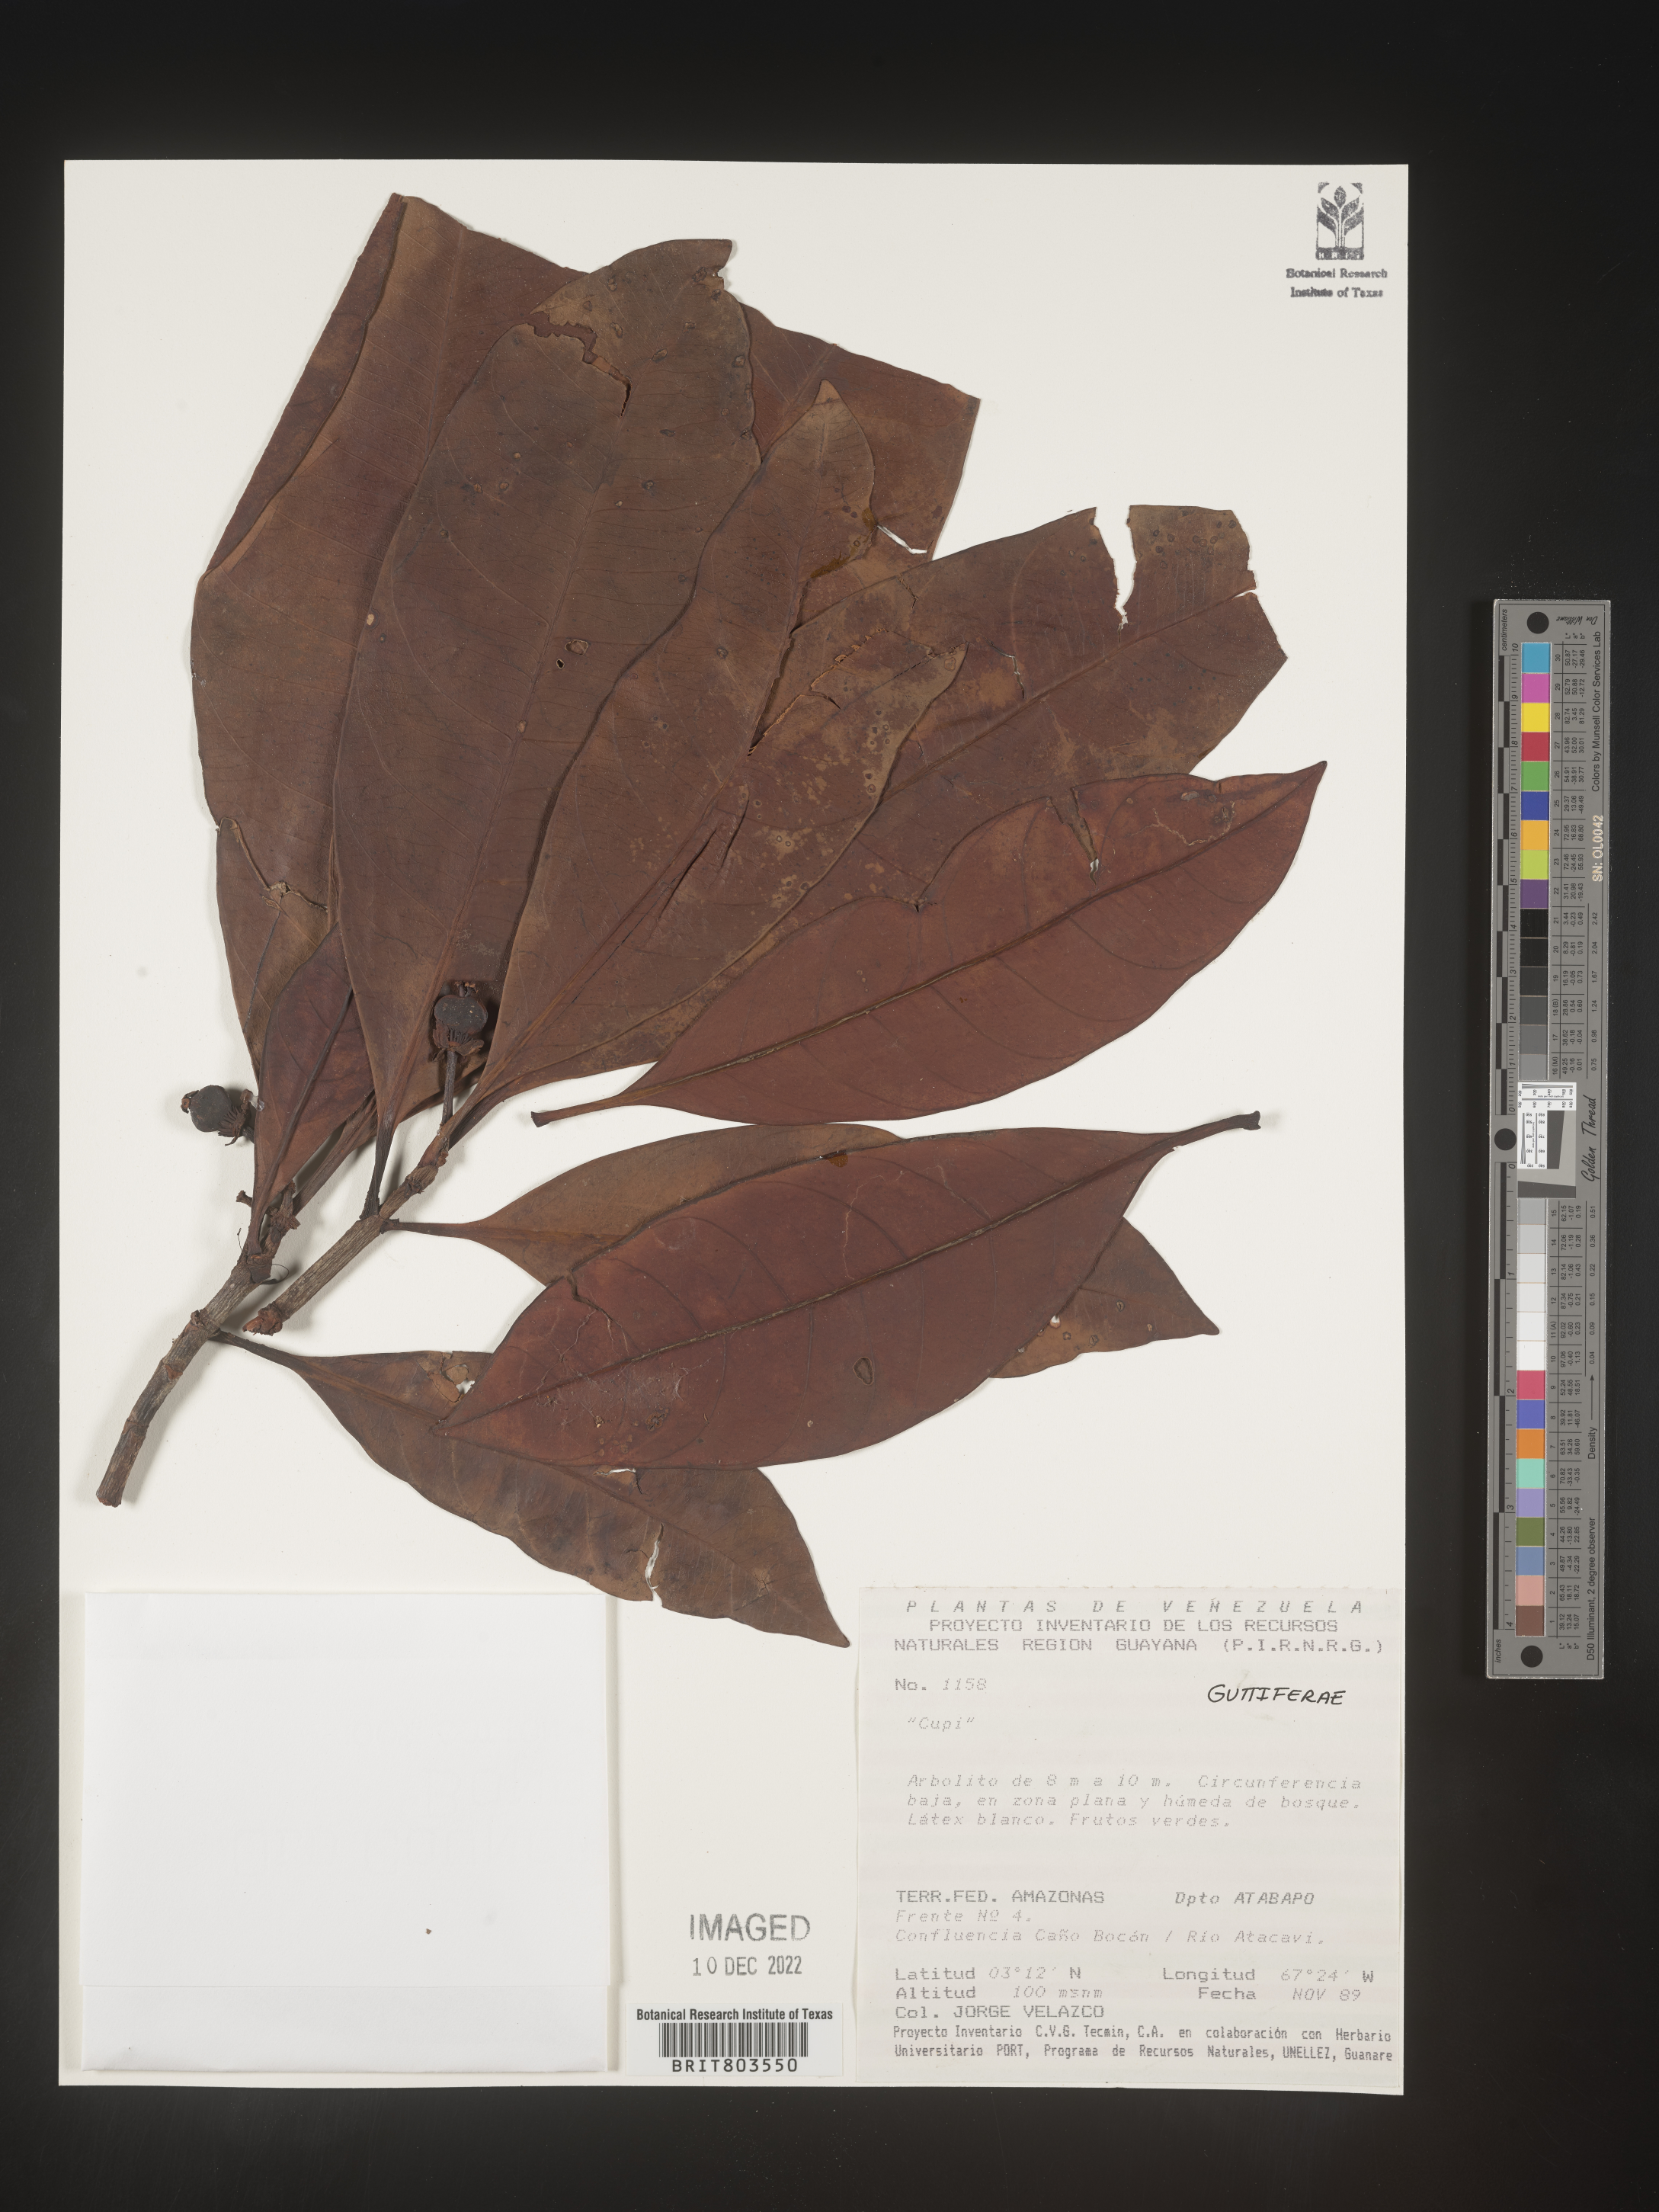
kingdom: Plantae
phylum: Tracheophyta
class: Magnoliopsida
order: Malpighiales
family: Clusiaceae
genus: Tovomita
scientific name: Tovomita
